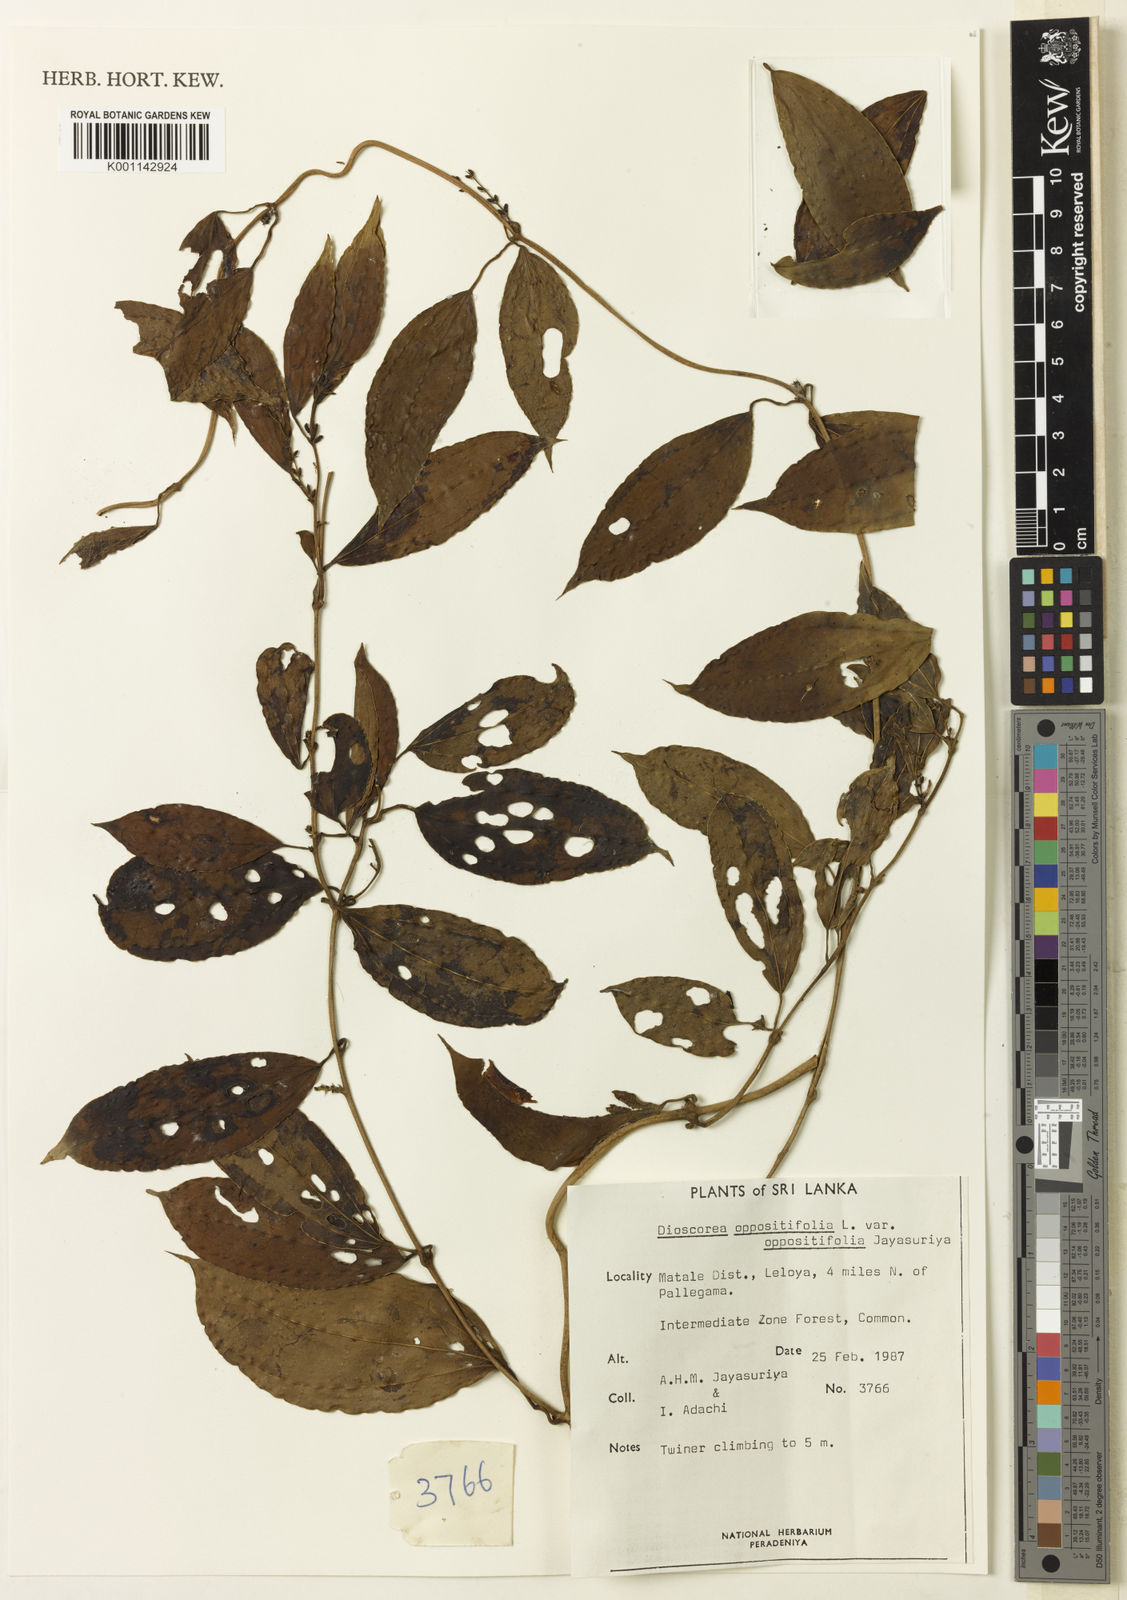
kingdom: Plantae
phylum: Tracheophyta
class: Liliopsida
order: Dioscoreales
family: Dioscoreaceae
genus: Dioscorea
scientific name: Dioscorea oppositifolia
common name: Chinese yam
